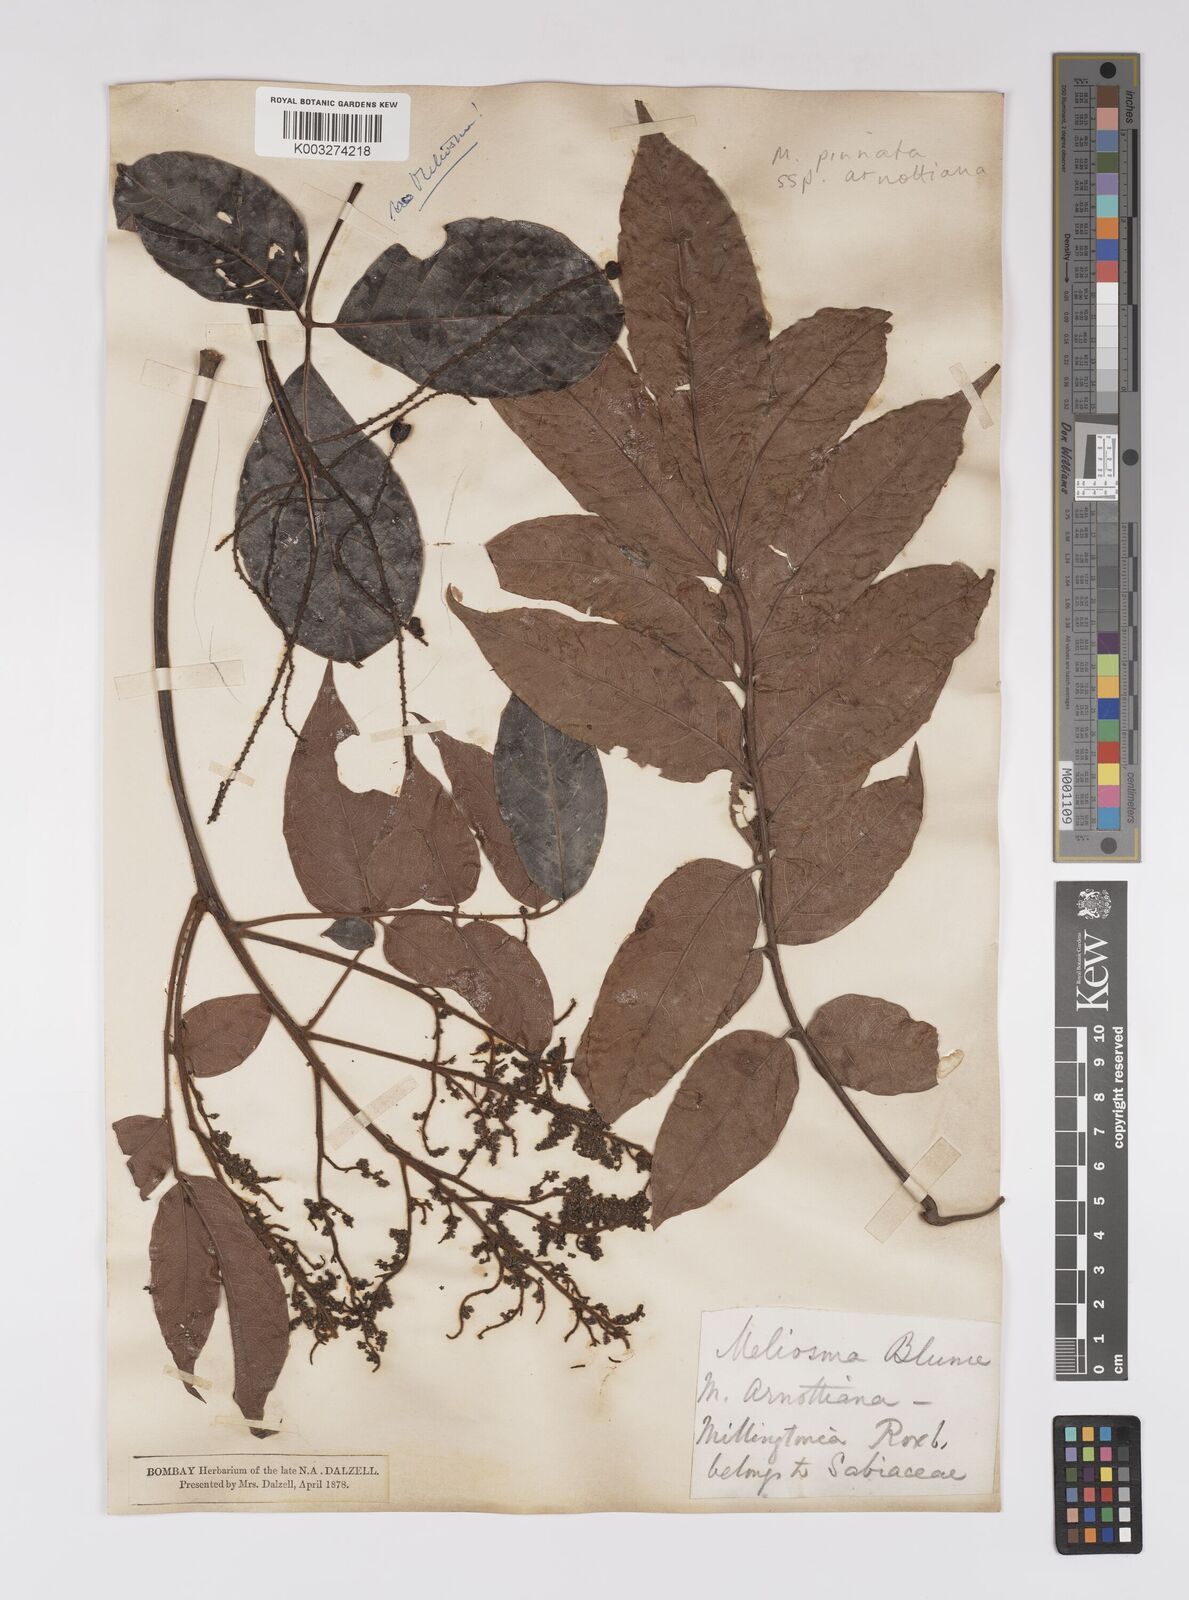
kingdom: Plantae
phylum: Tracheophyta
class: Magnoliopsida
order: Proteales
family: Sabiaceae
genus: Meliosma
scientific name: Meliosma rhoifolia
